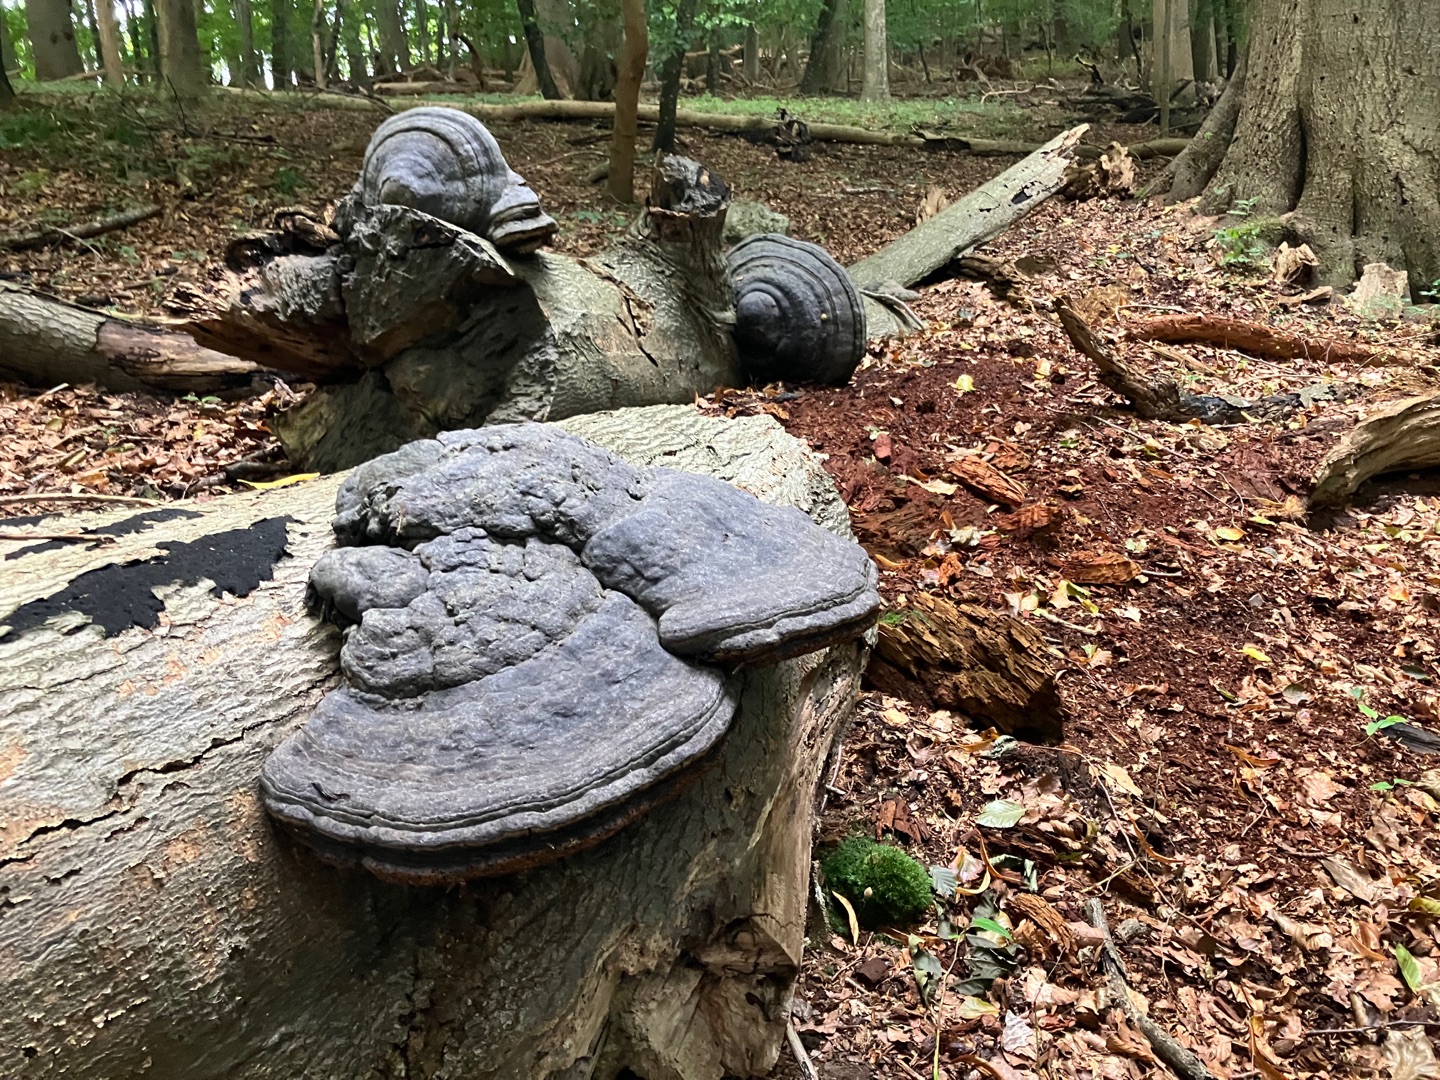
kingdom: Fungi
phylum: Basidiomycota
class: Agaricomycetes
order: Polyporales
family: Polyporaceae
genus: Fomes
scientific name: Fomes fomentarius
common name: Tøndersvamp
